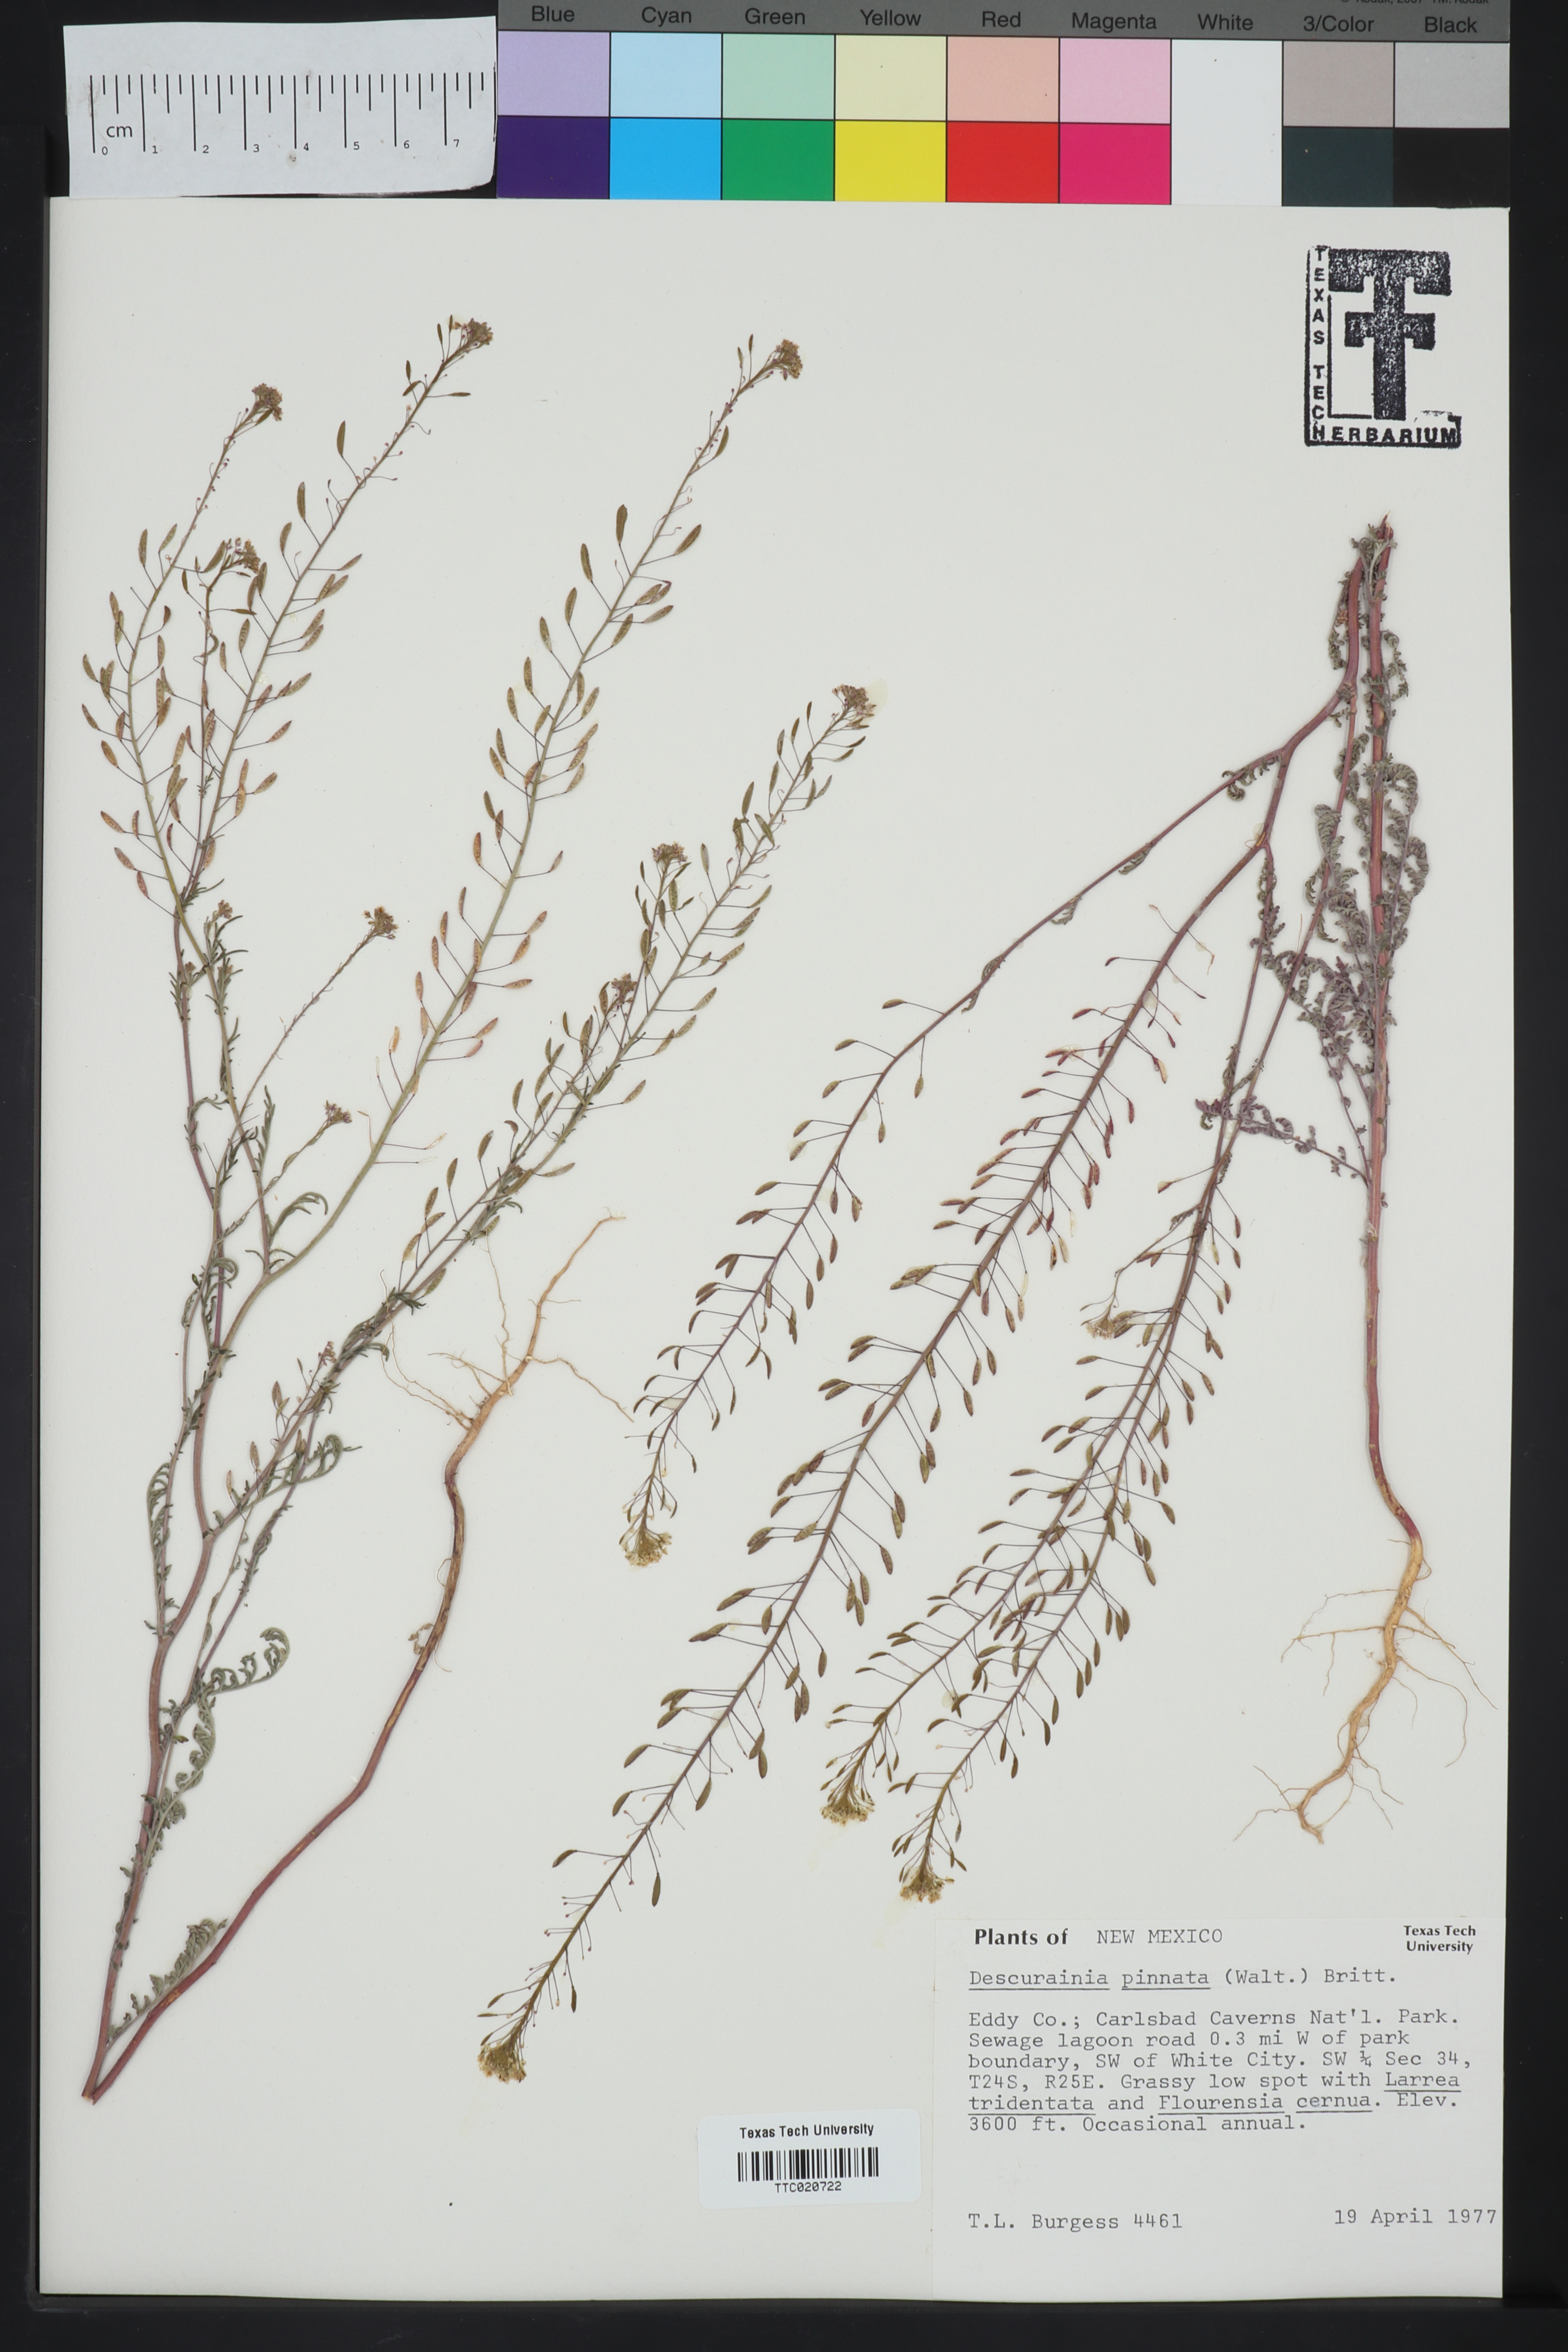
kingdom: Plantae
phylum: Tracheophyta
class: Magnoliopsida
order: Brassicales
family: Brassicaceae
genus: Descurainia
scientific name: Descurainia pinnata
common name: Western tansy mustard
